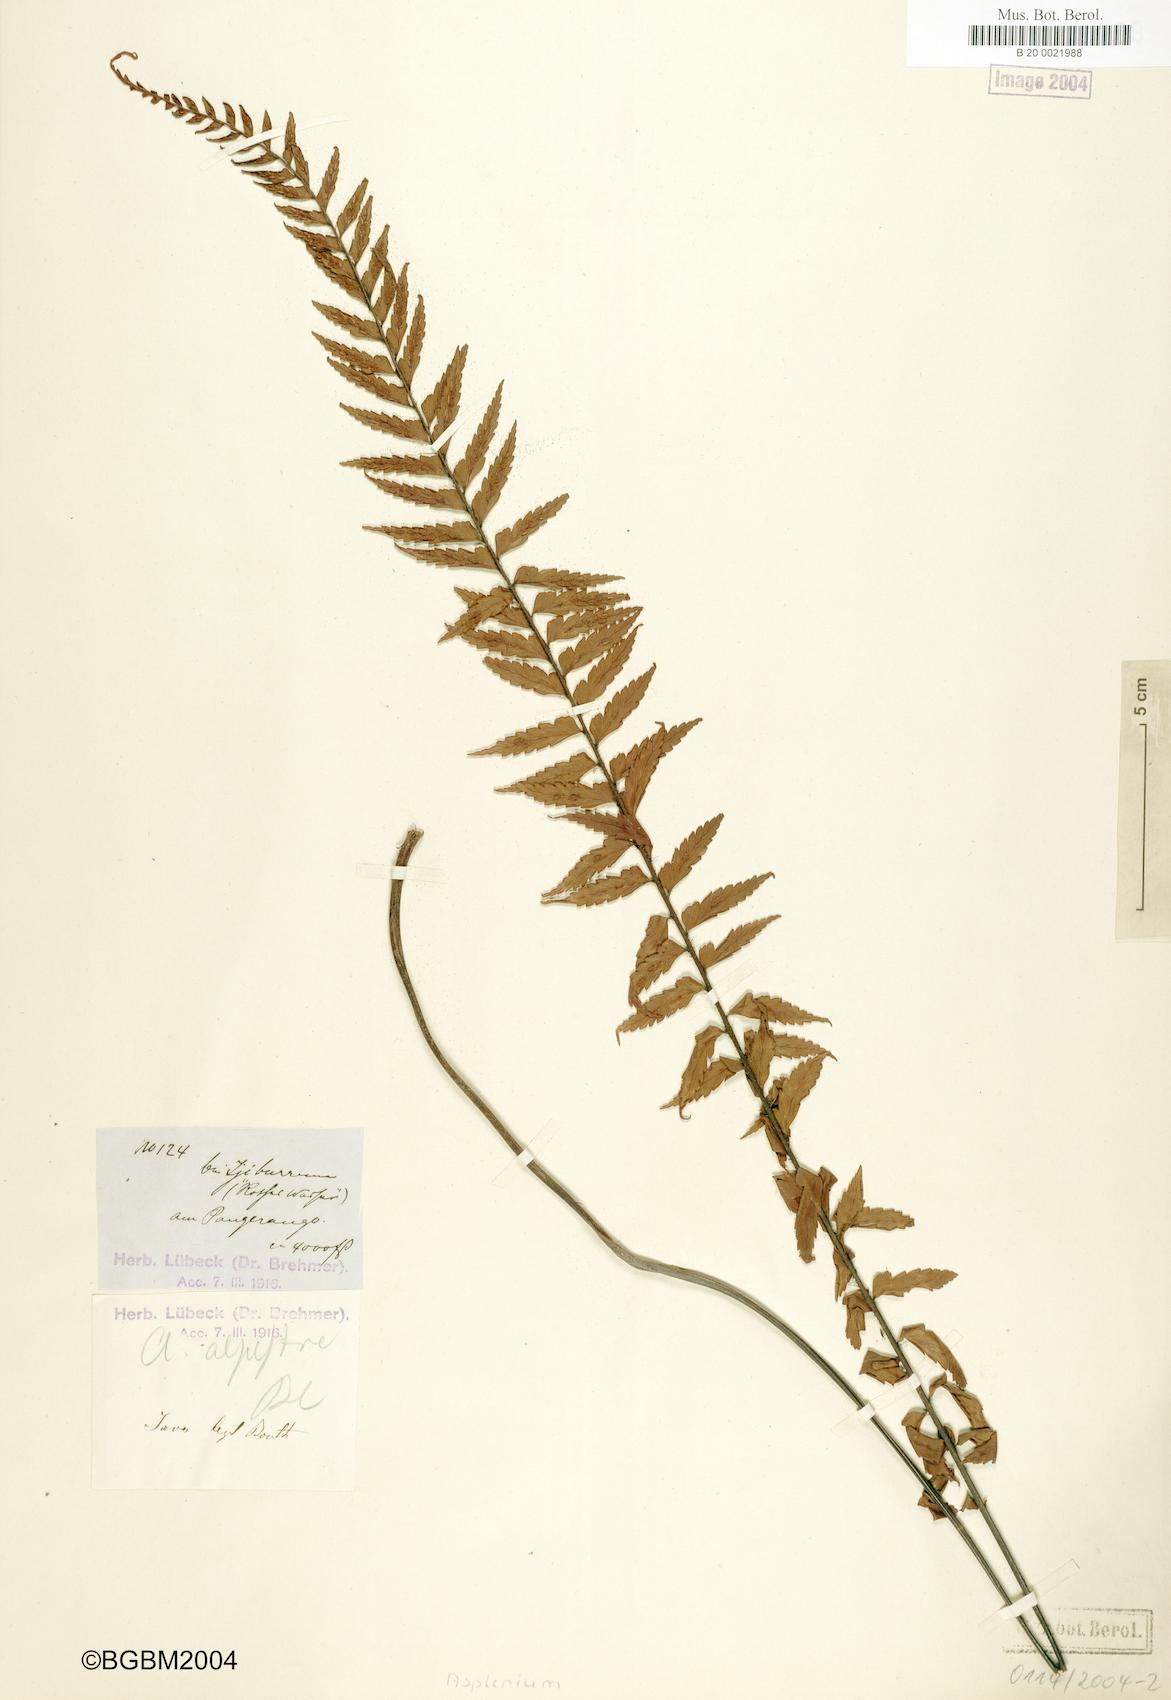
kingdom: Plantae
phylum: Tracheophyta
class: Polypodiopsida
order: Polypodiales
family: Athyriaceae
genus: Diplazium
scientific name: Diplazium pallidum
